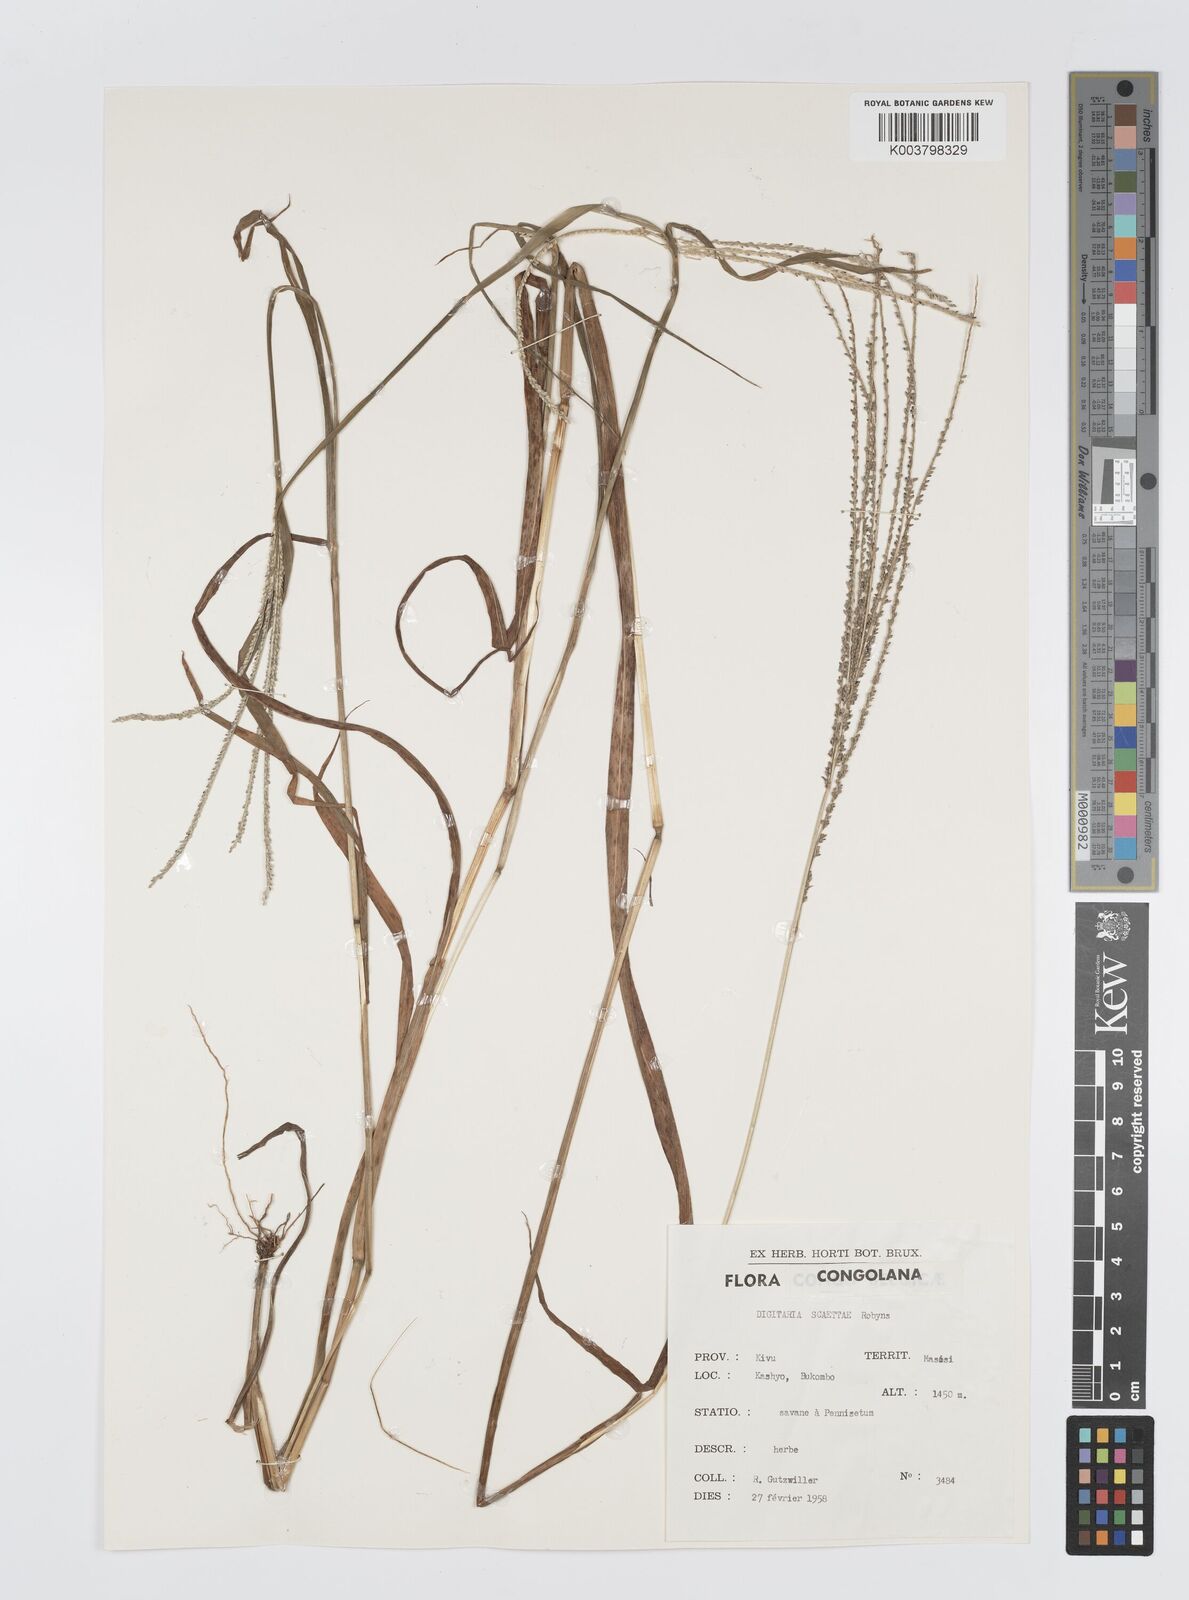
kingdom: Plantae
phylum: Tracheophyta
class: Liliopsida
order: Poales
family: Poaceae
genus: Digitaria
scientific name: Digitaria thouarsiana
